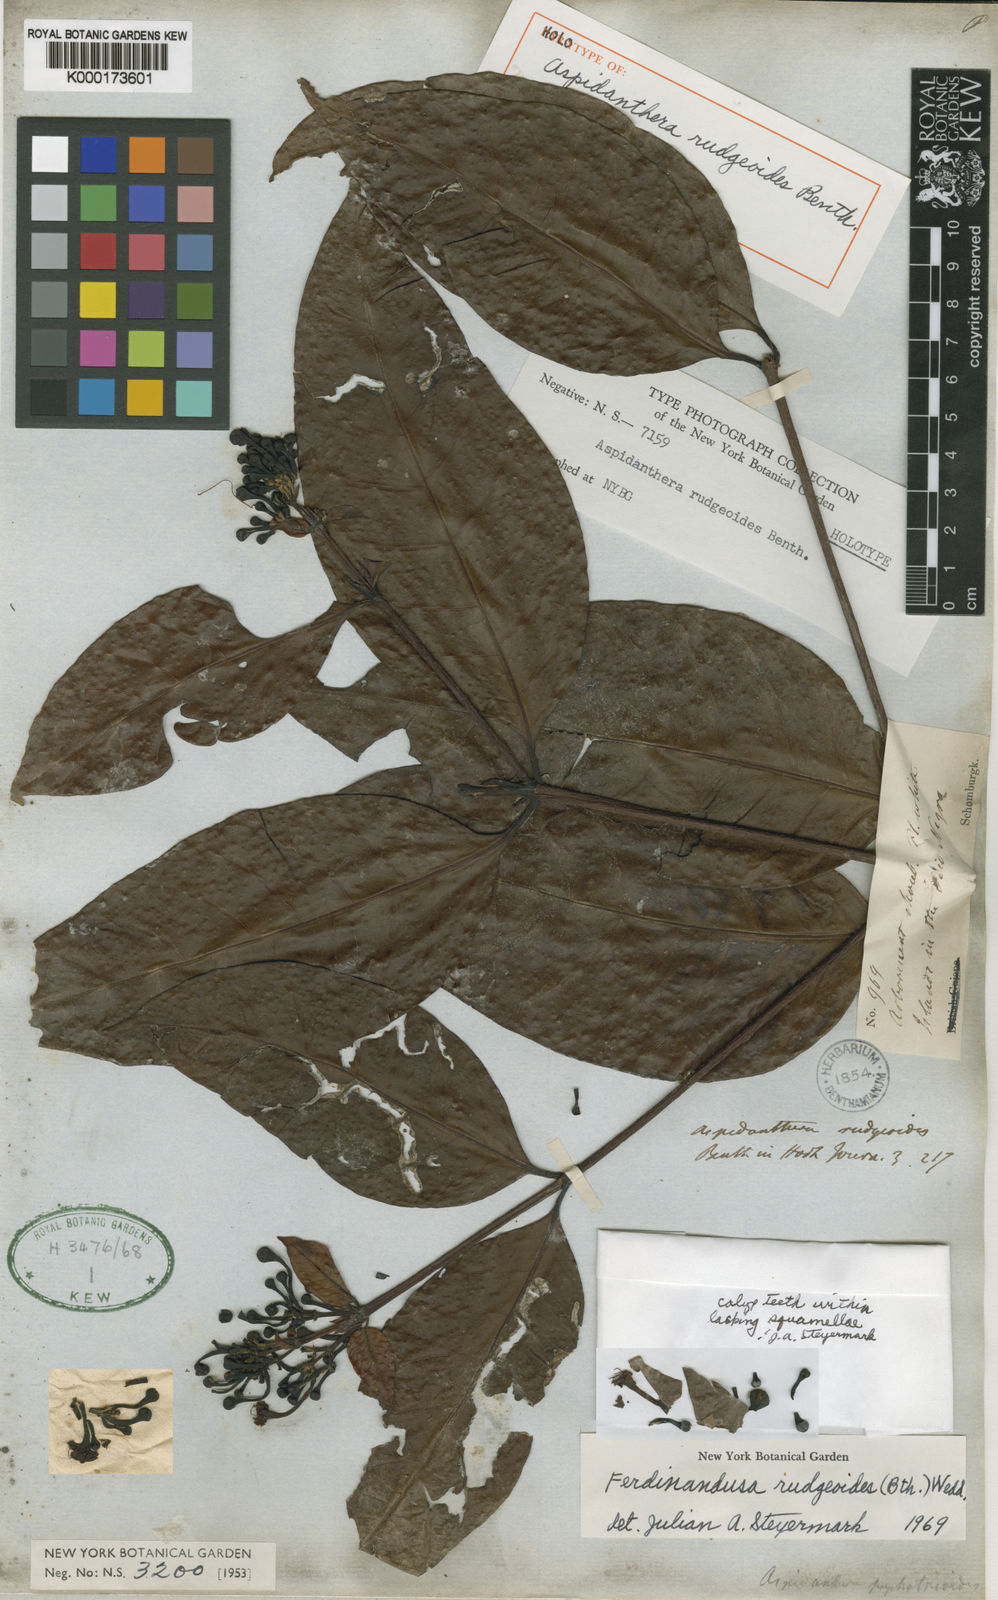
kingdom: Plantae
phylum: Tracheophyta
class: Magnoliopsida
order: Gentianales
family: Rubiaceae
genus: Ferdinandusa
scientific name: Ferdinandusa rudgeoides
